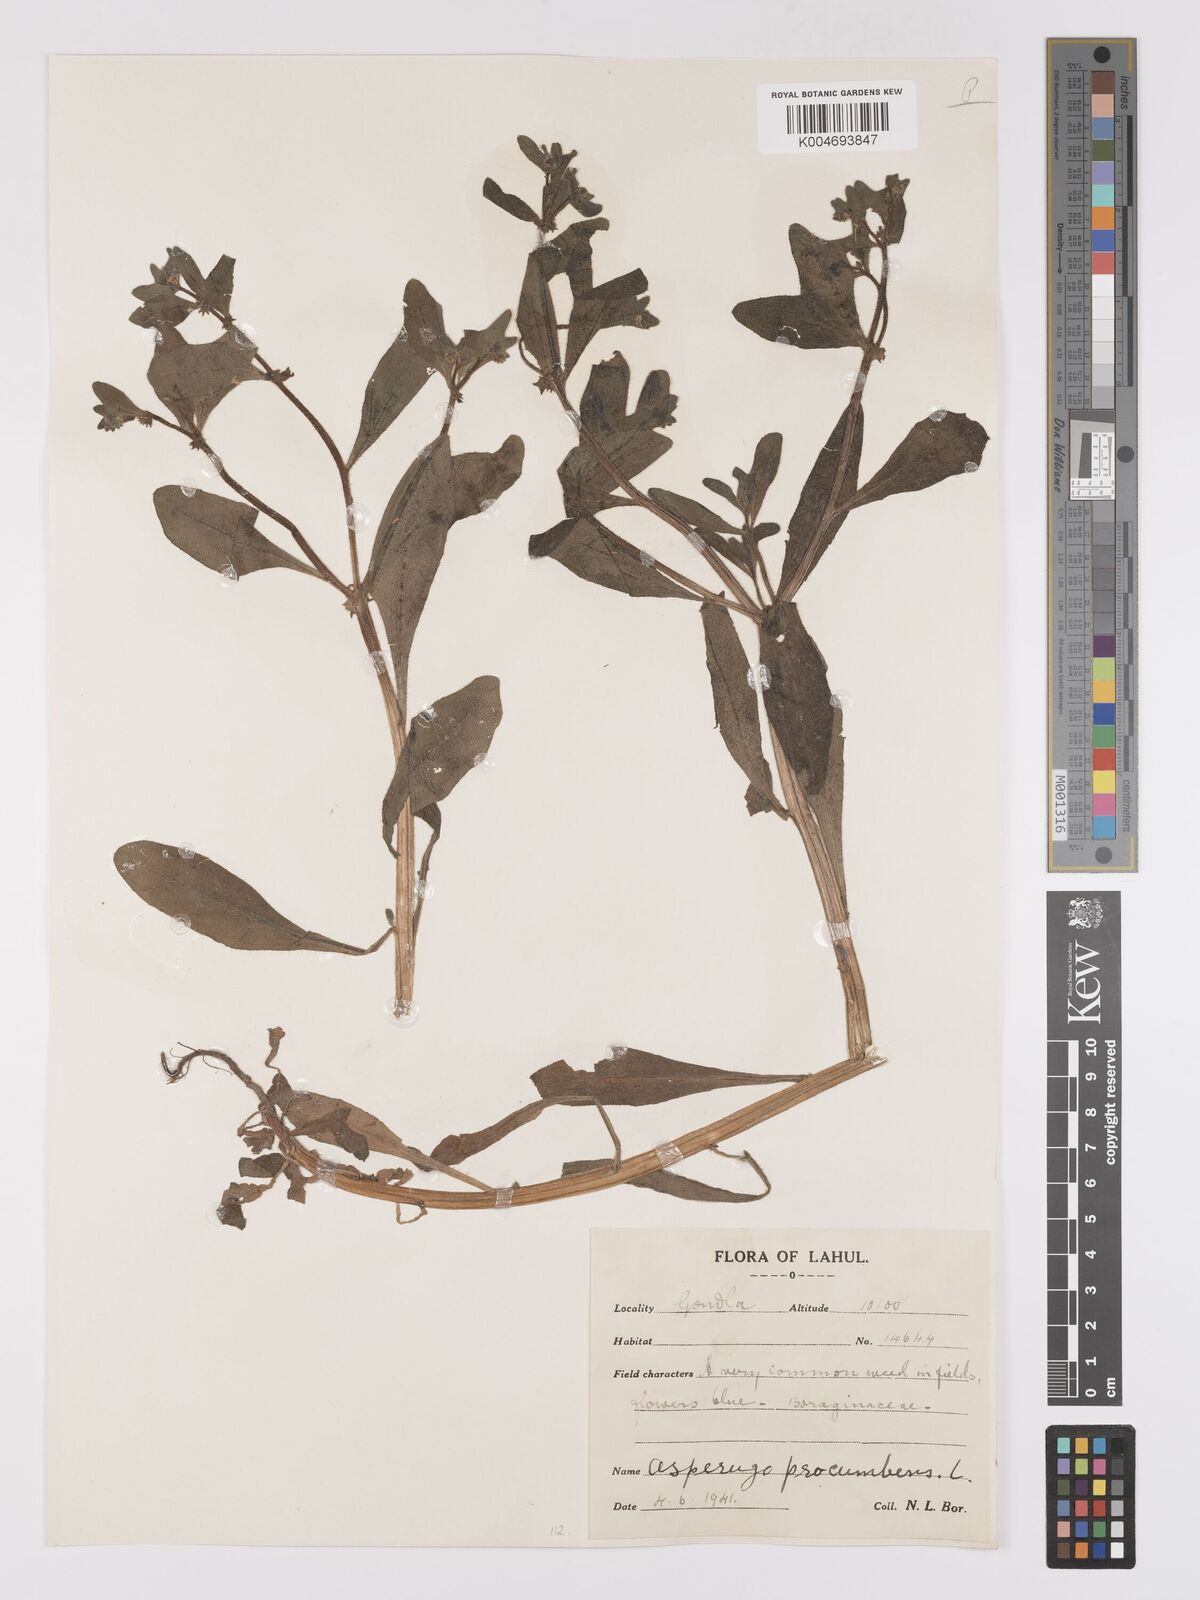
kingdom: Plantae
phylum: Tracheophyta
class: Magnoliopsida
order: Boraginales
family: Boraginaceae
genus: Asperugo
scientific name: Asperugo procumbens
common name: Madwort
